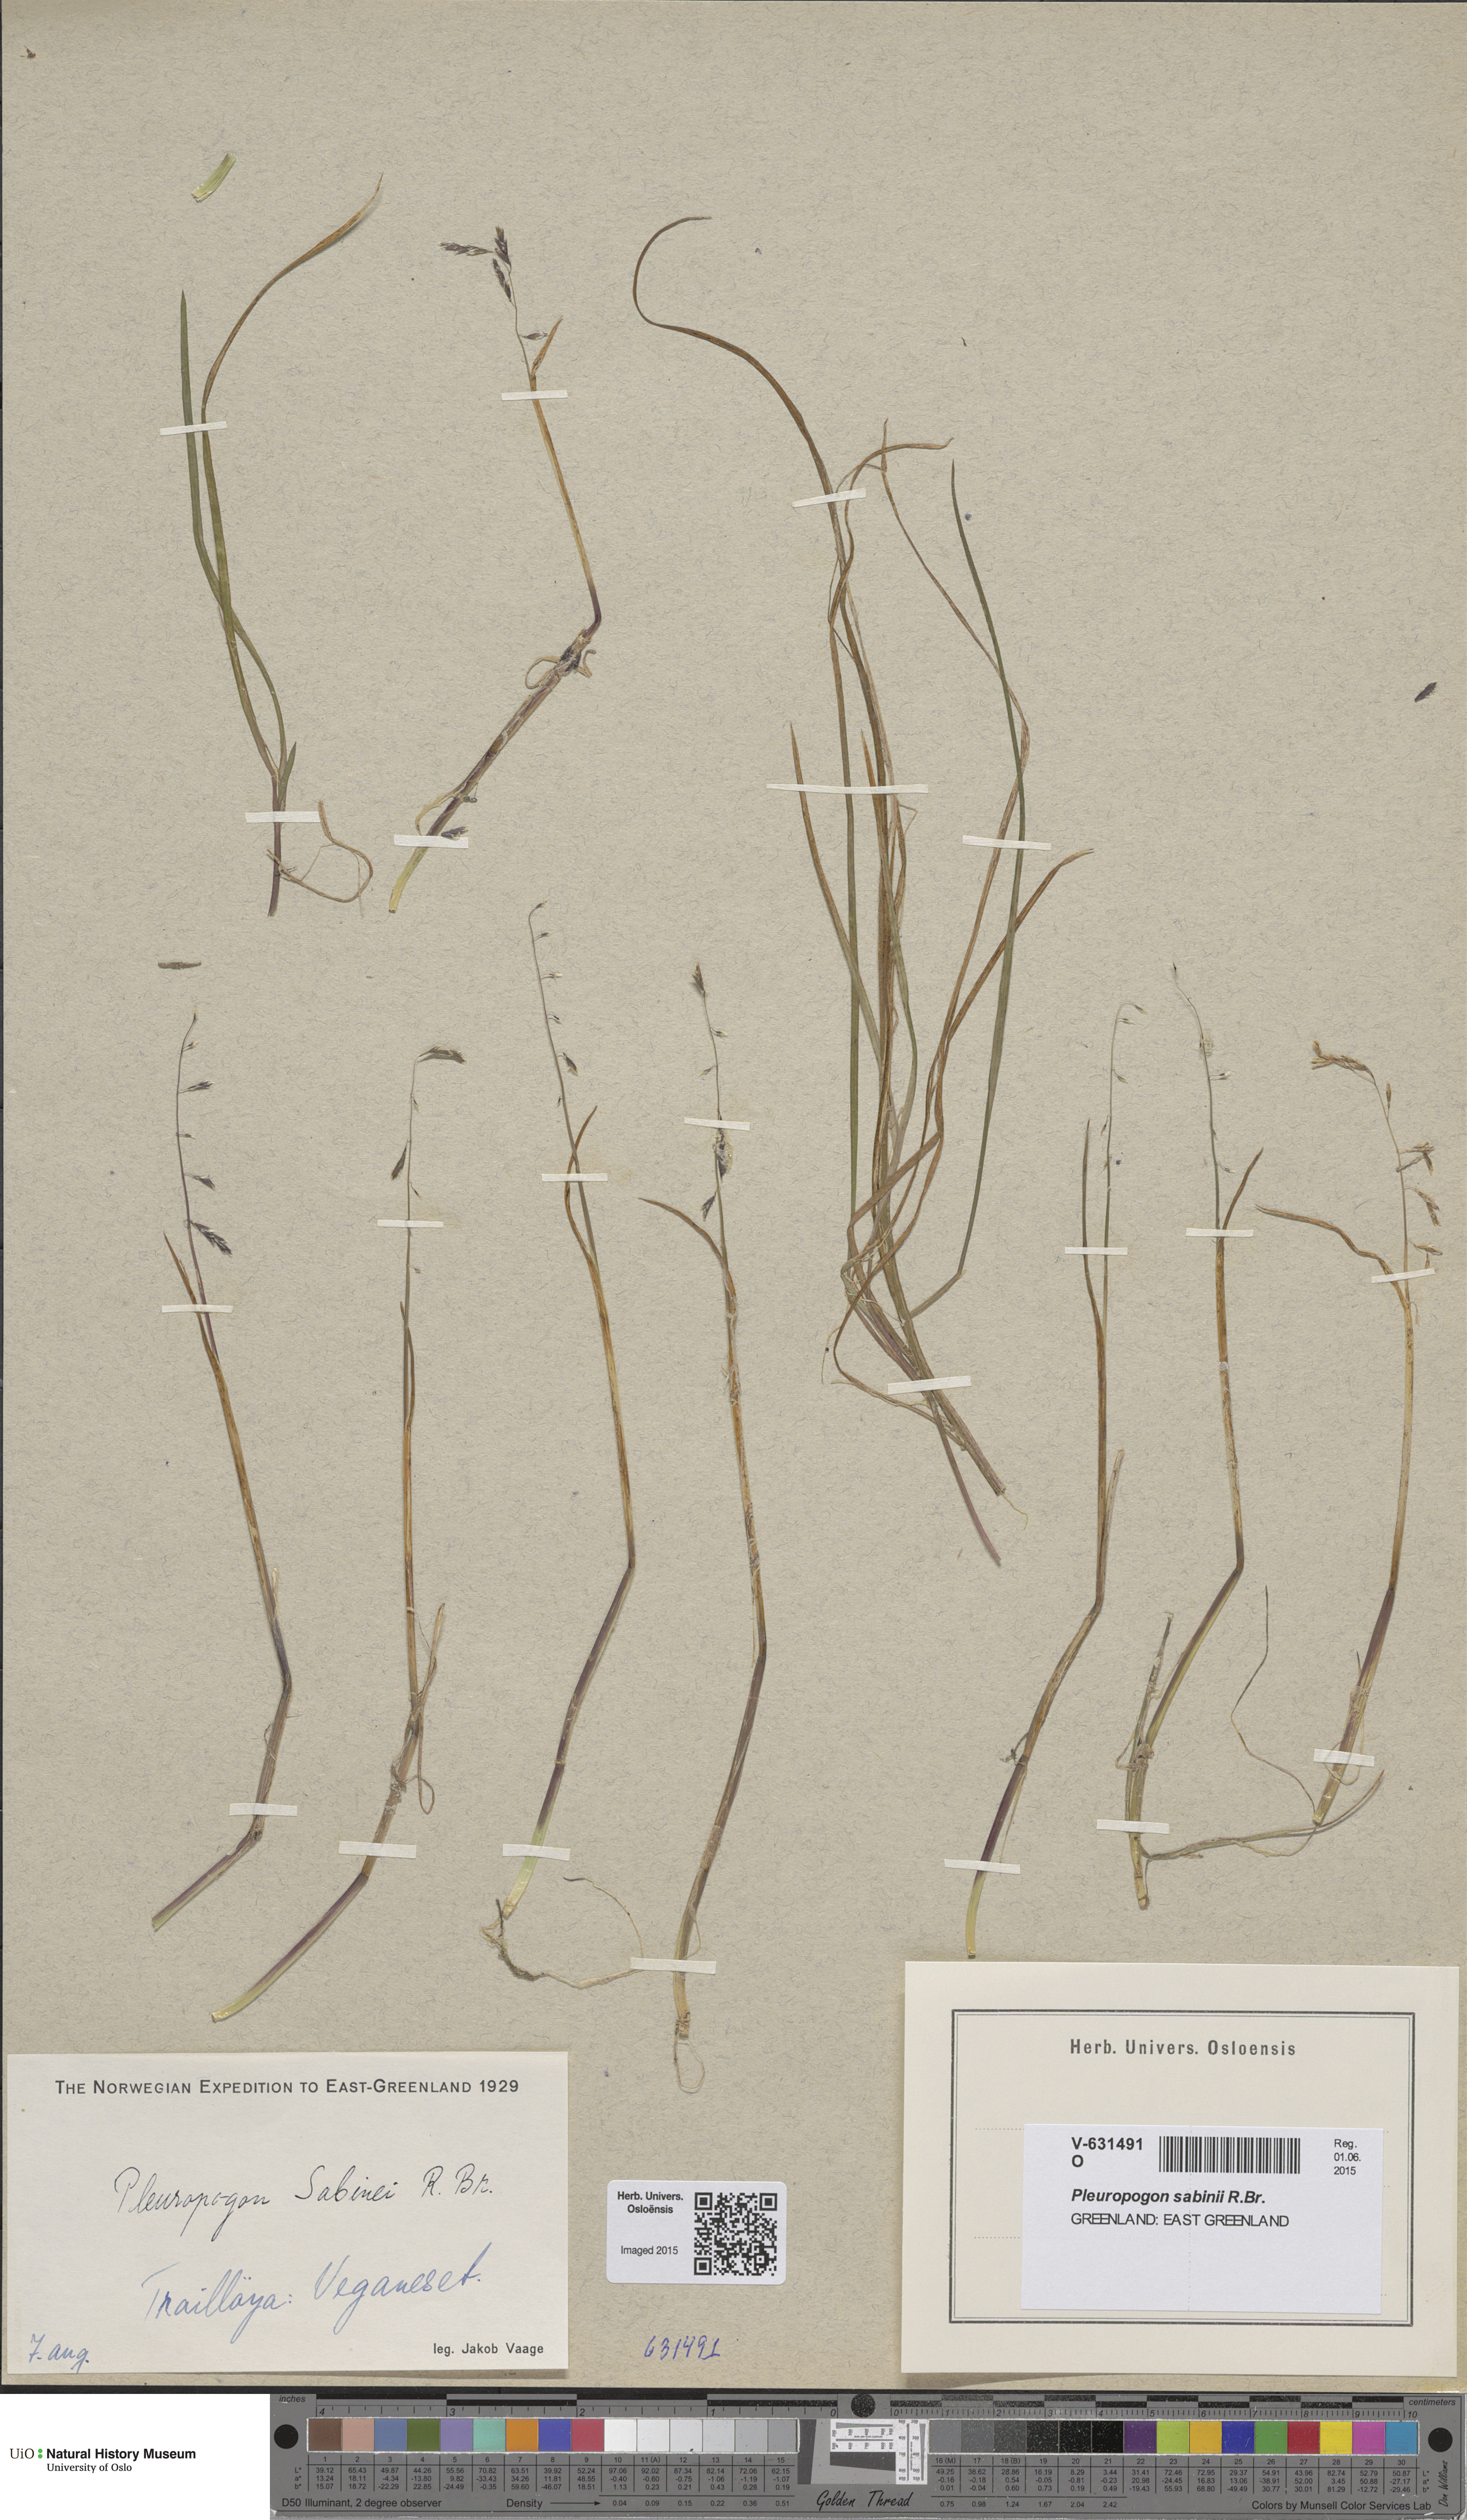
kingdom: Plantae
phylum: Tracheophyta
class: Liliopsida
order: Poales
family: Poaceae
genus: Pleuropogon
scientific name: Pleuropogon sabinei
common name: Sabine's false semaphoregrass
